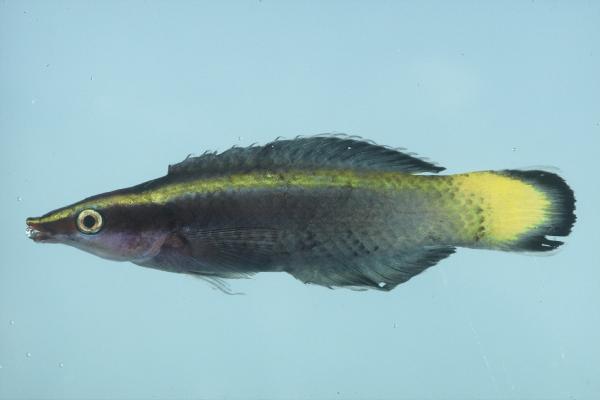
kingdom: Animalia
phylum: Chordata
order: Perciformes
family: Labridae
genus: Labroides
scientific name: Labroides bicolor
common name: Bicolor cleaner wrasse
